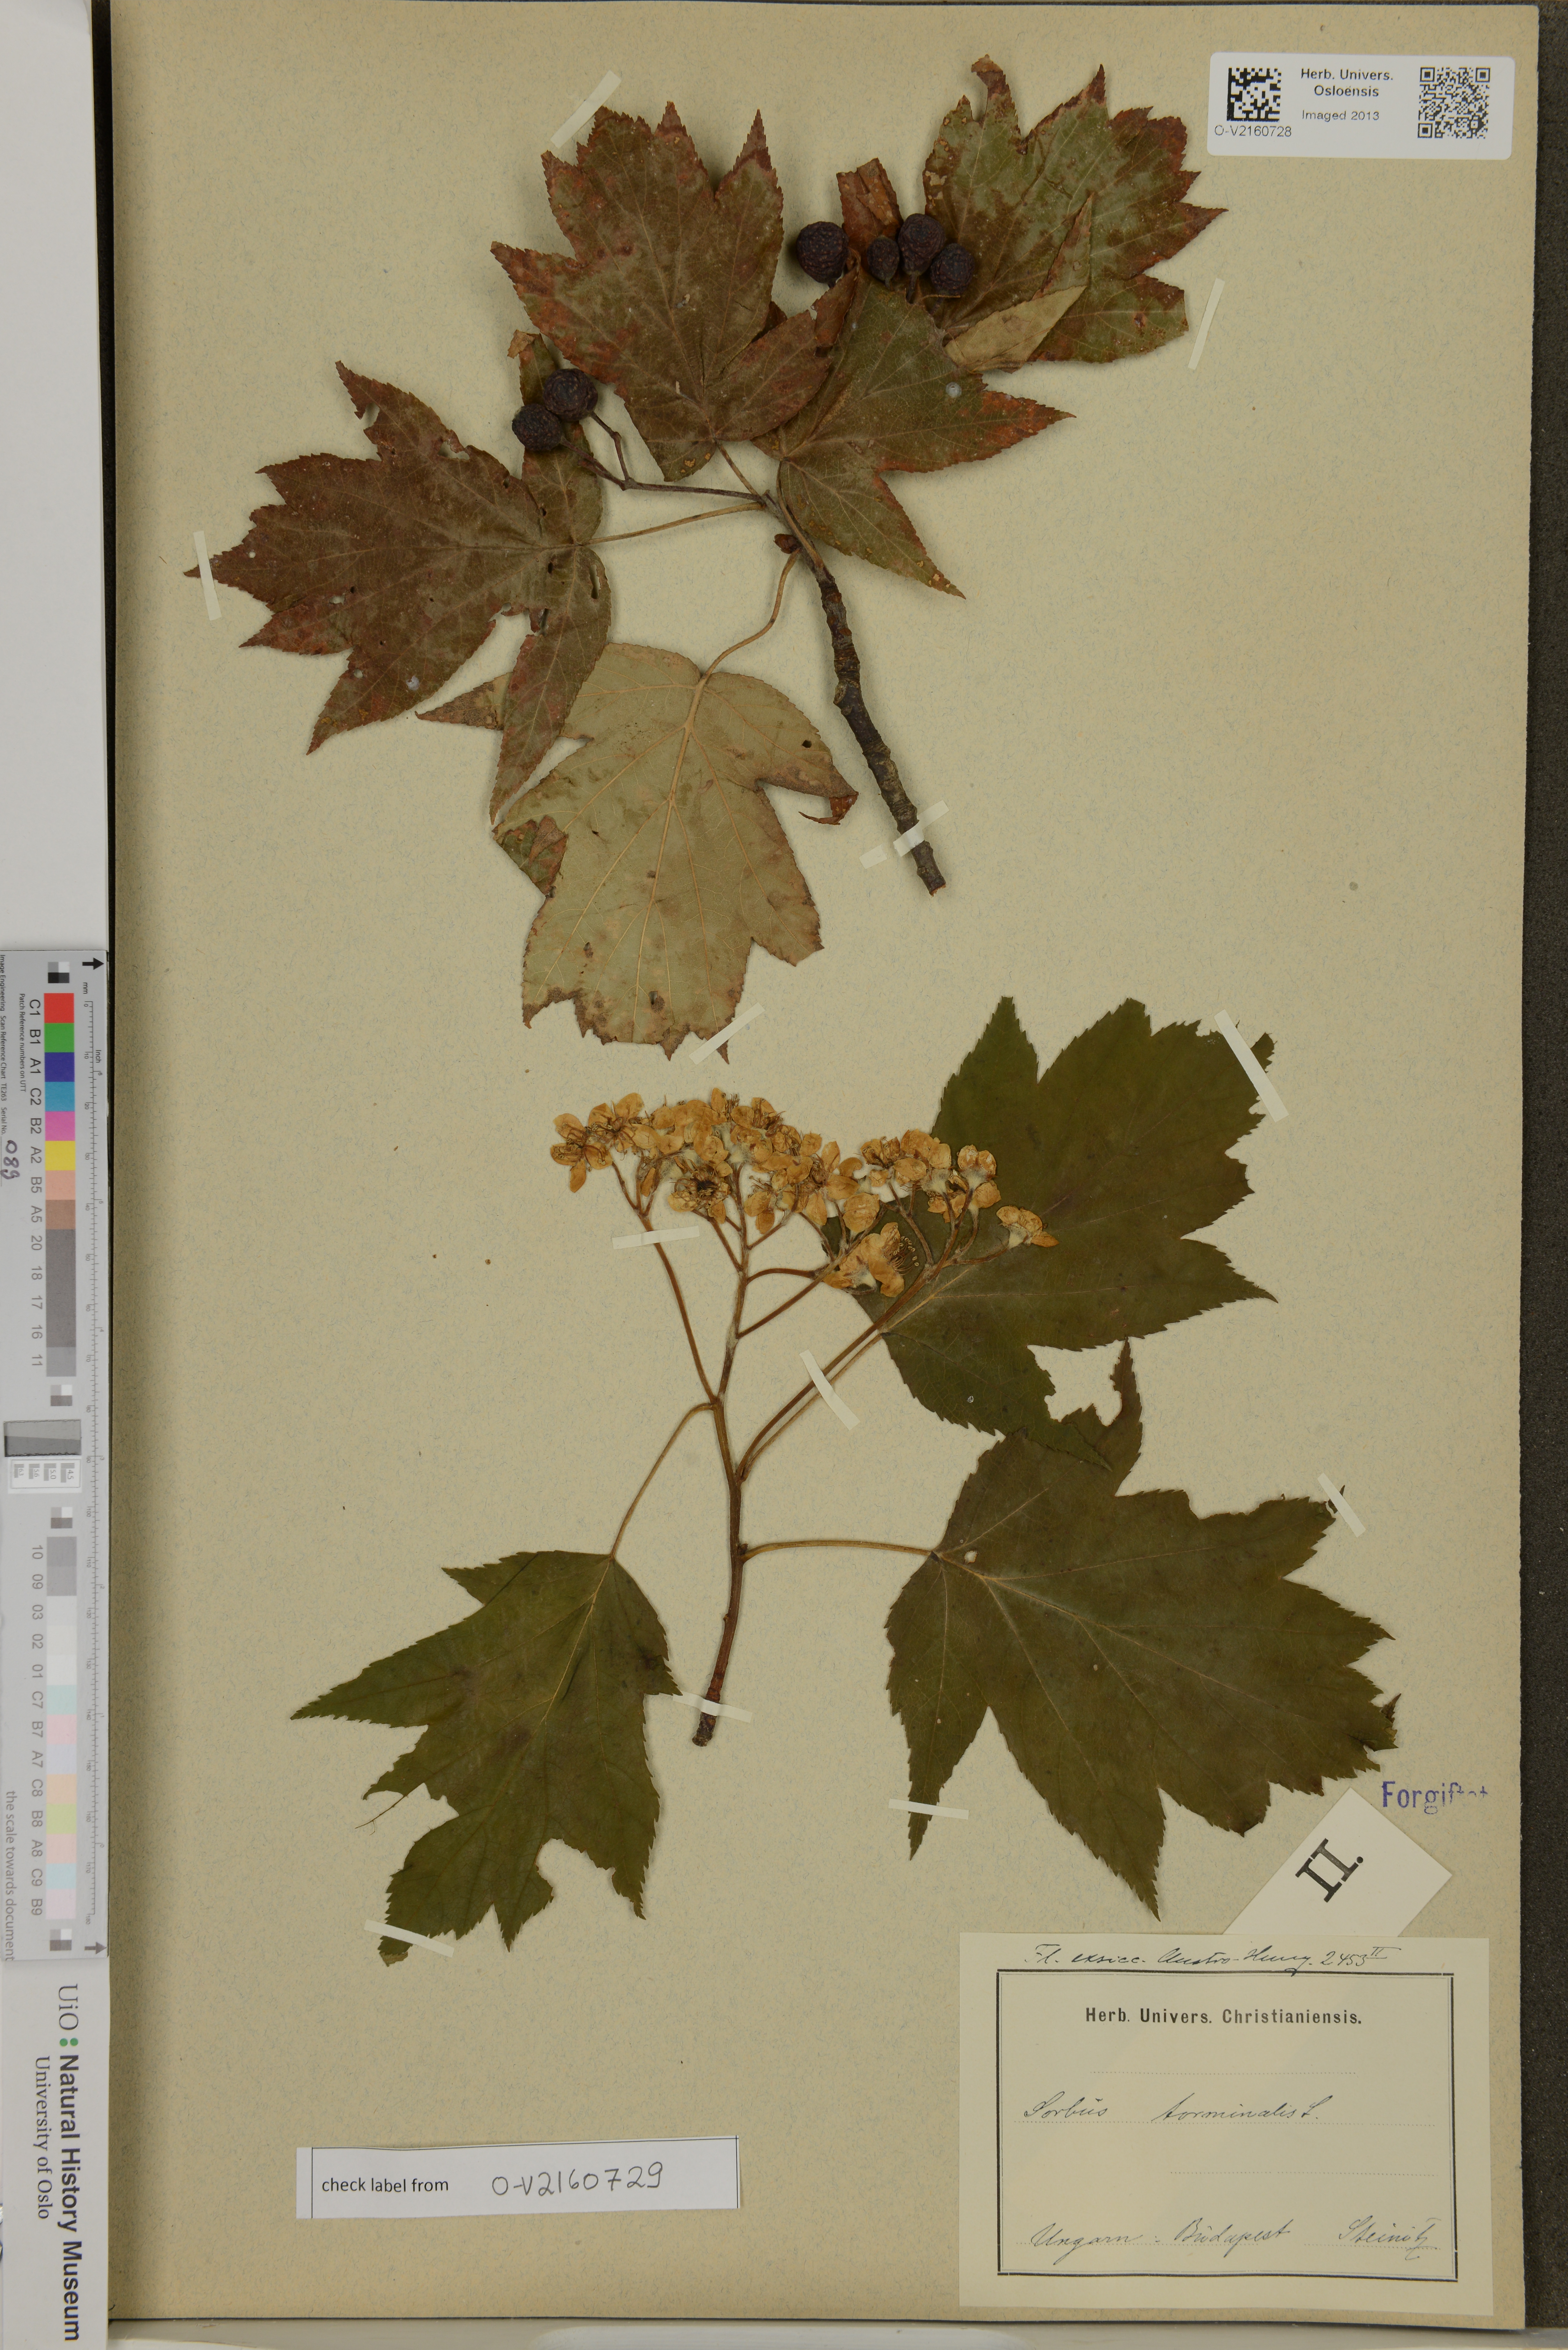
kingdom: Plantae
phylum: Tracheophyta
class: Magnoliopsida
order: Rosales
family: Rosaceae
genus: Torminalis
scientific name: Torminalis glaberrima
